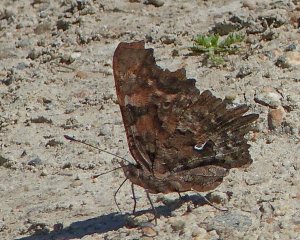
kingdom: Animalia
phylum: Arthropoda
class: Insecta
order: Lepidoptera
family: Nymphalidae
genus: Polygonia
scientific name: Polygonia gracilis
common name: Hoary Comma
